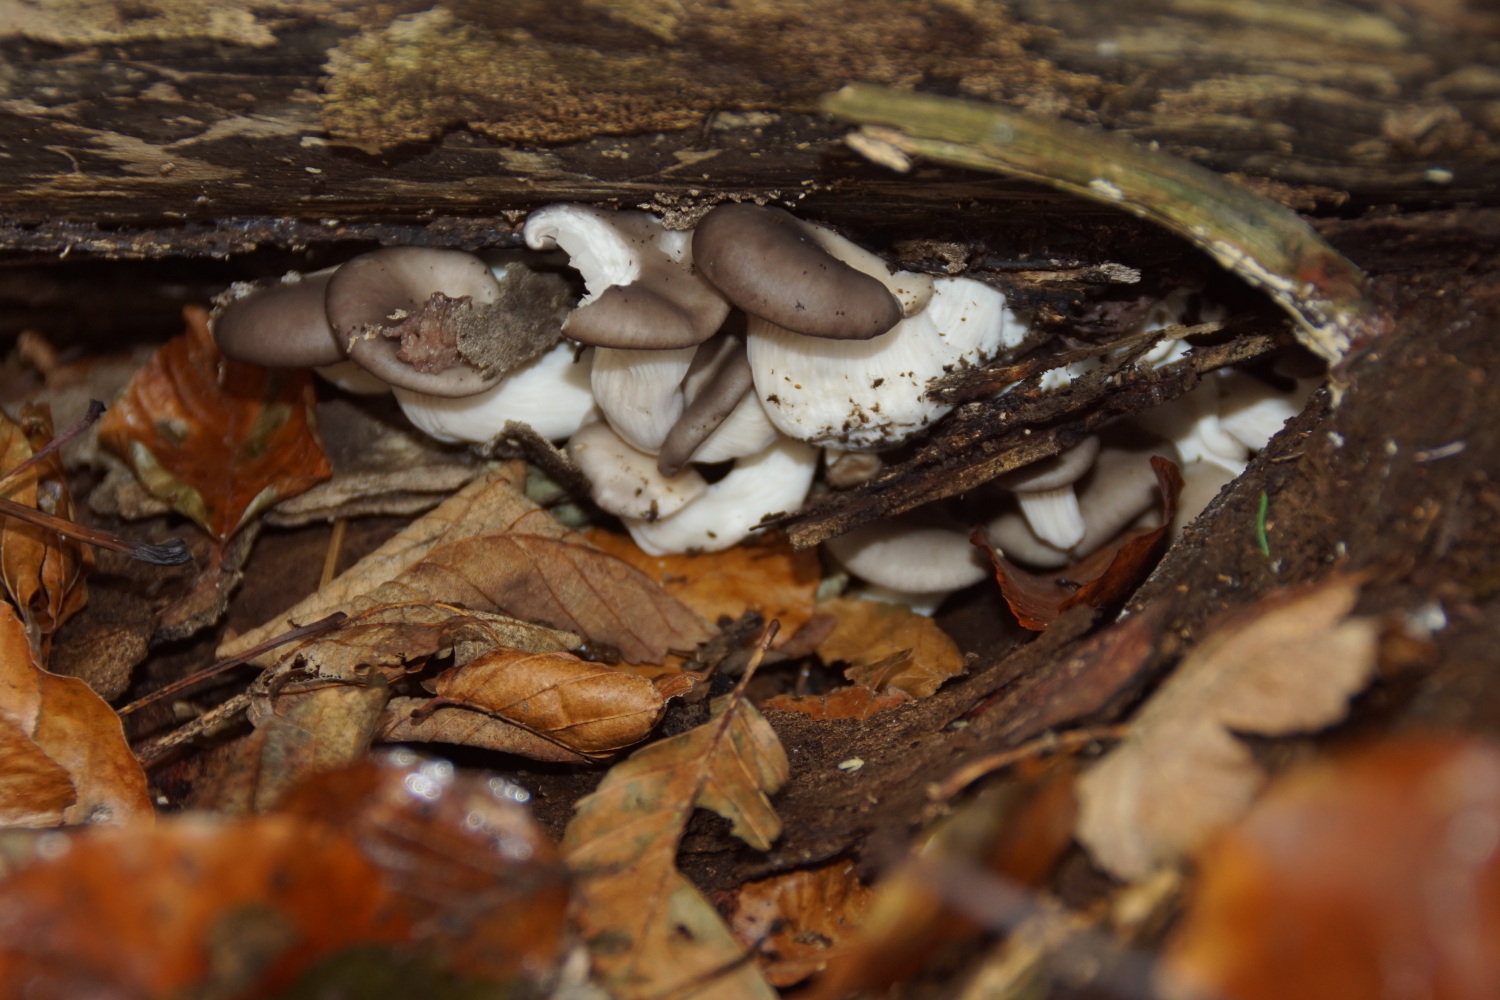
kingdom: Fungi
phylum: Basidiomycota
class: Agaricomycetes
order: Agaricales
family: Pleurotaceae
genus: Pleurotus
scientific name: Pleurotus ostreatus
